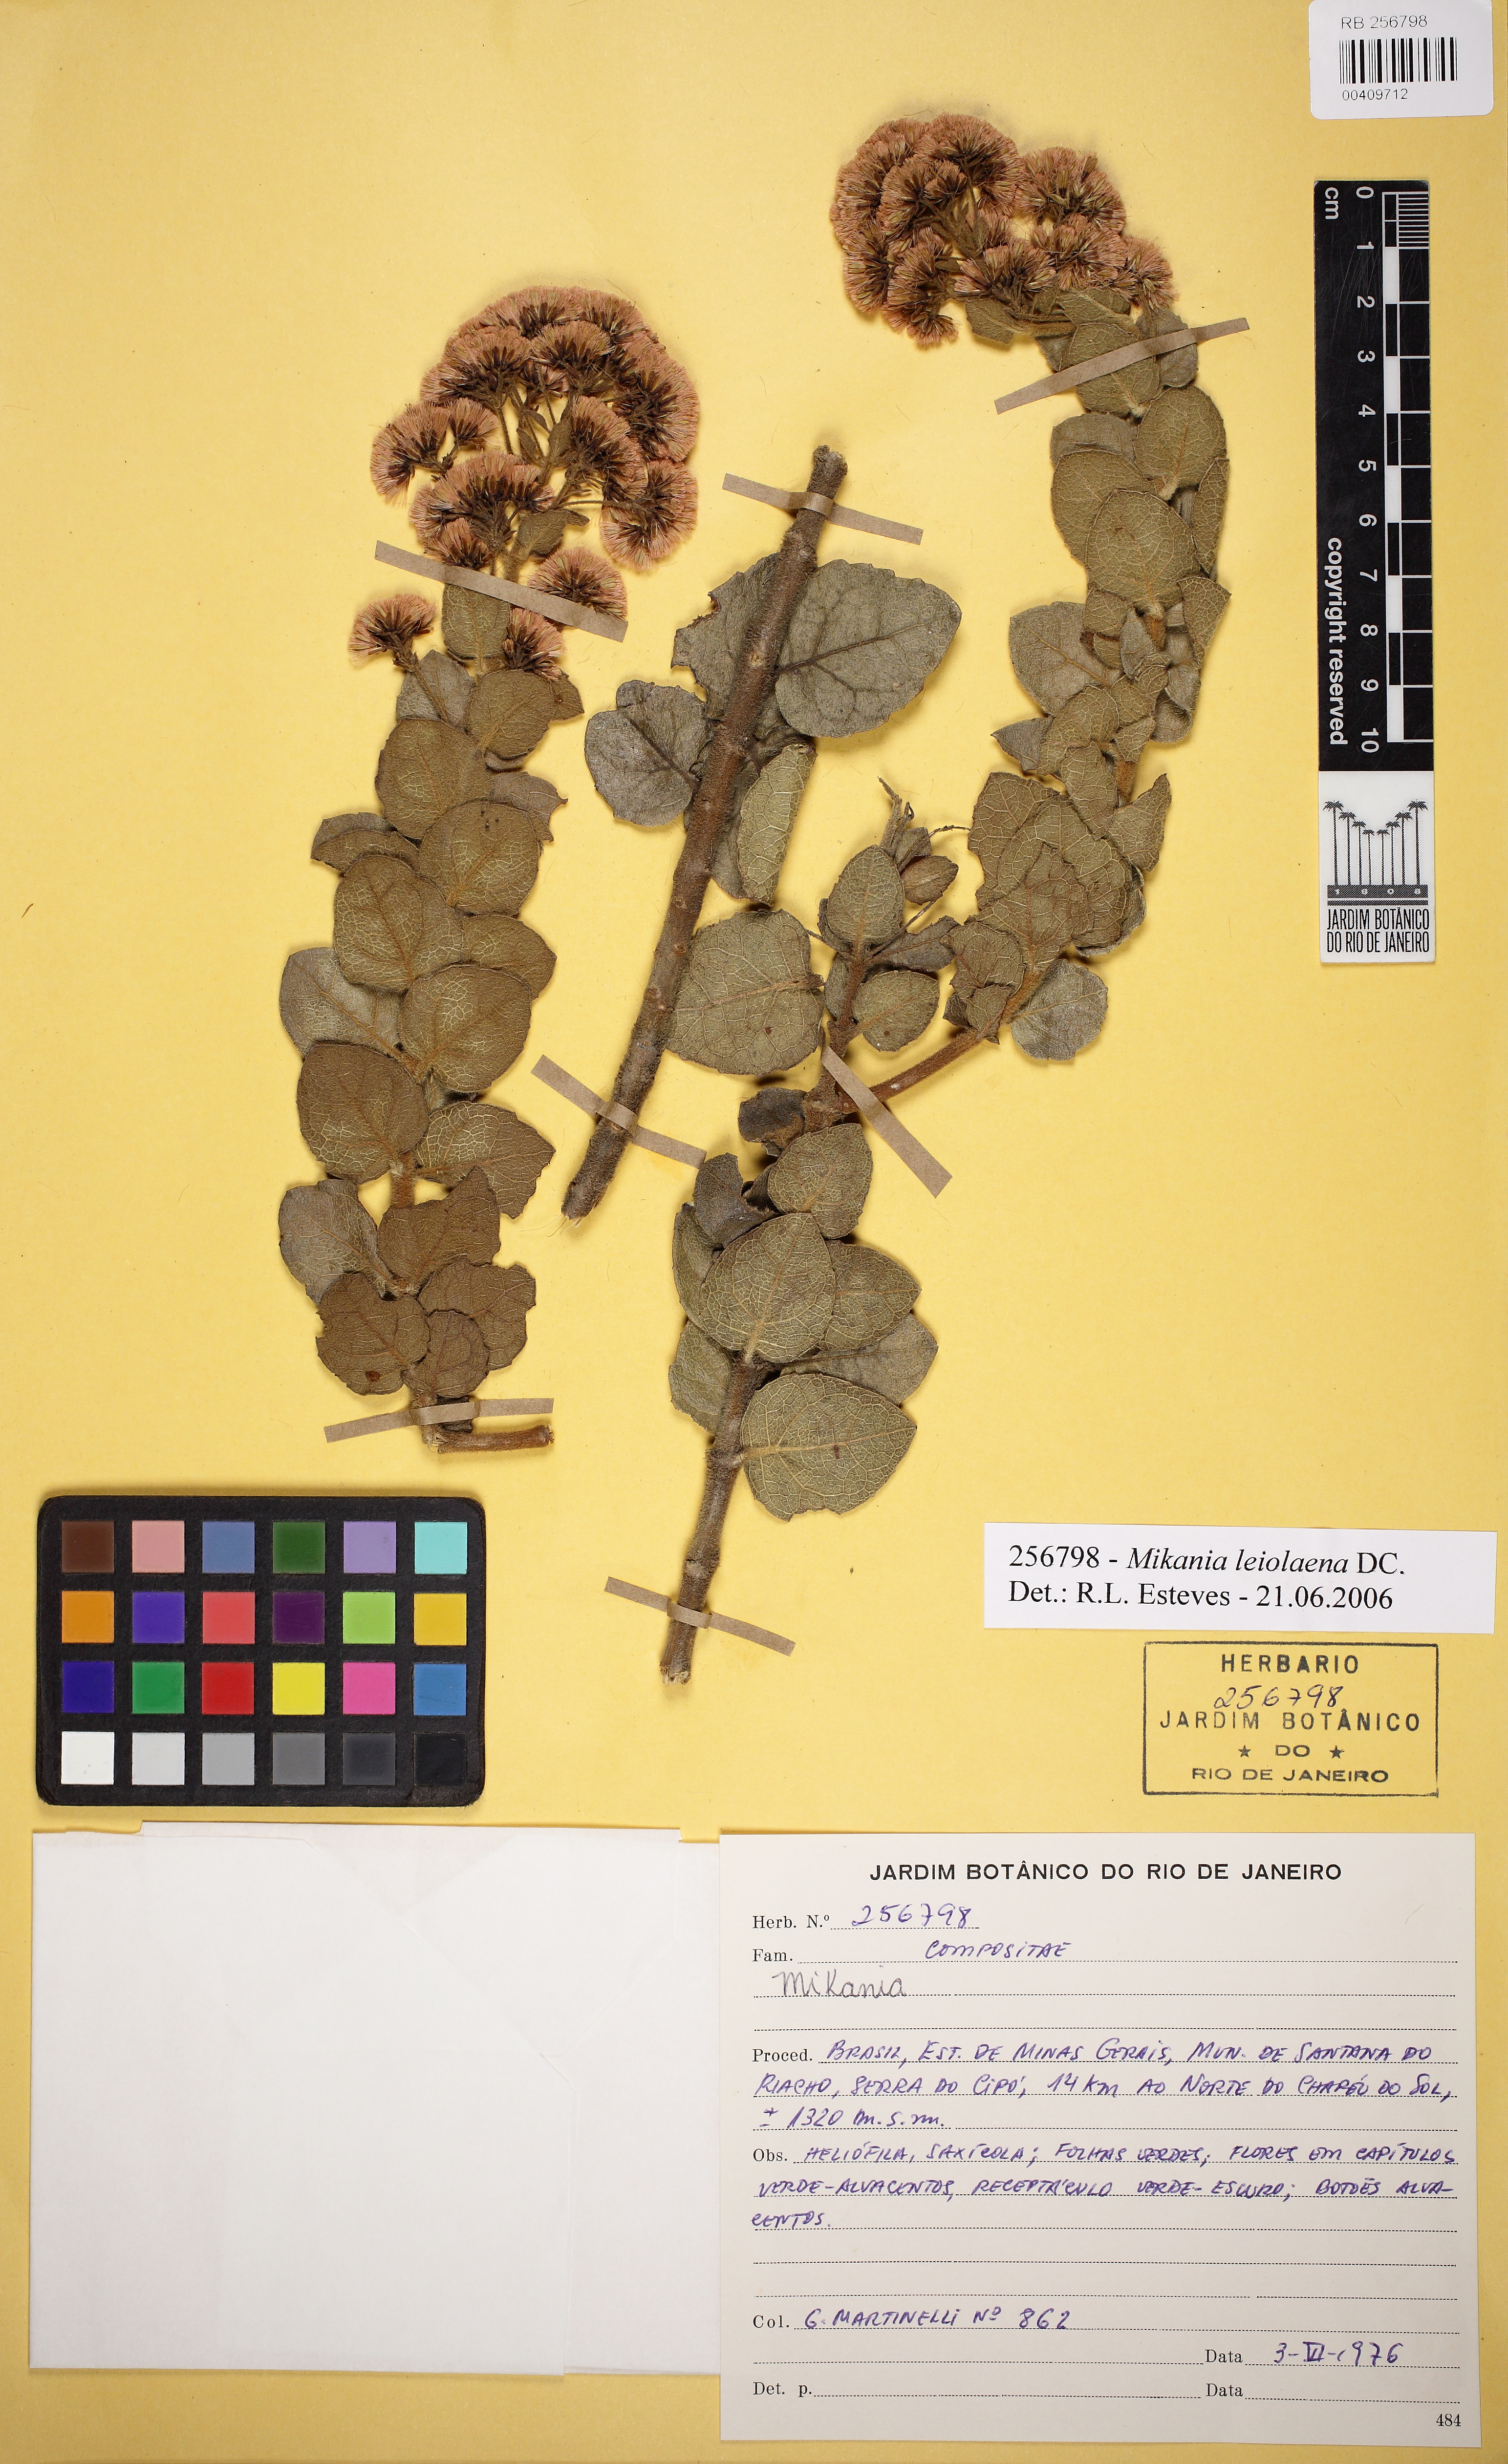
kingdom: Plantae
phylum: Tracheophyta
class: Magnoliopsida
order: Asterales
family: Asteraceae
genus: Mikania
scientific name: Mikania leiolaena
